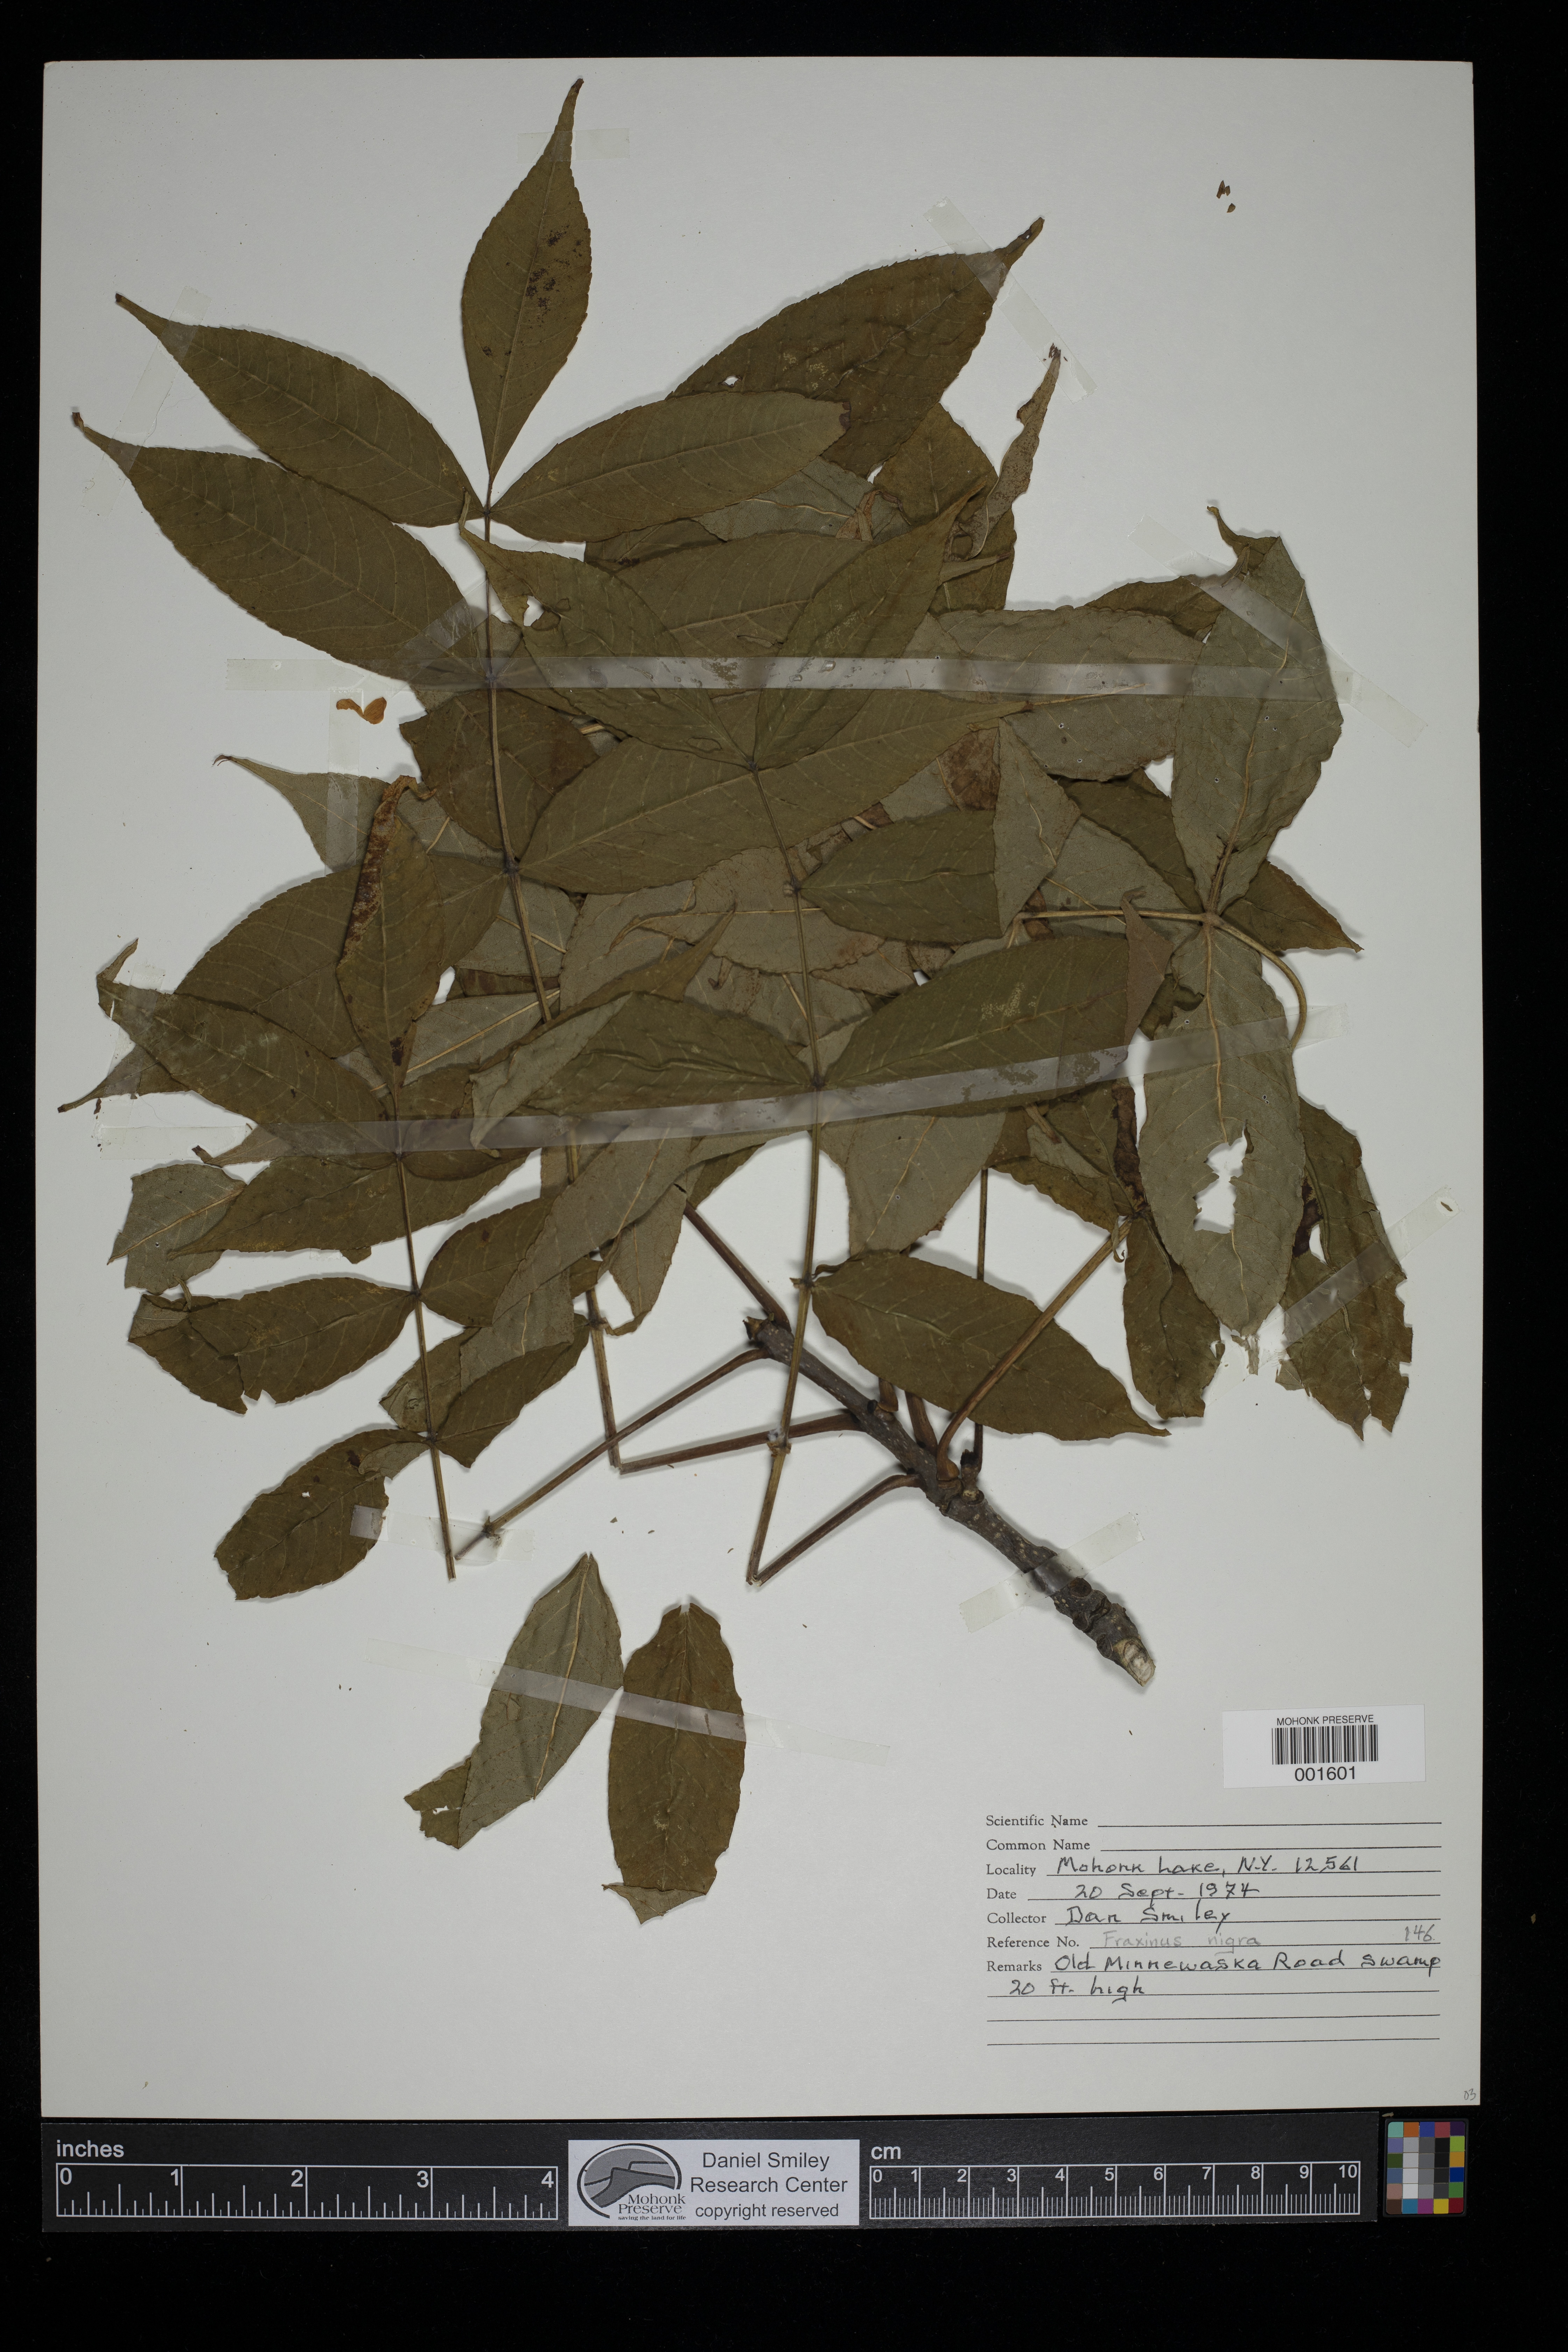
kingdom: Plantae
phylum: Tracheophyta
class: Magnoliopsida
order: Lamiales
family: Oleaceae
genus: Fraxinus
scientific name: Fraxinus nigra
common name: Black ash
